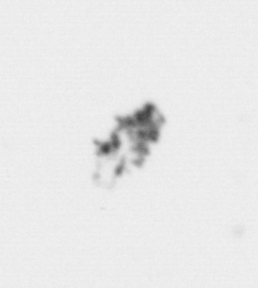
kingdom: Animalia
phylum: Arthropoda
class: Copepoda
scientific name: Copepoda
